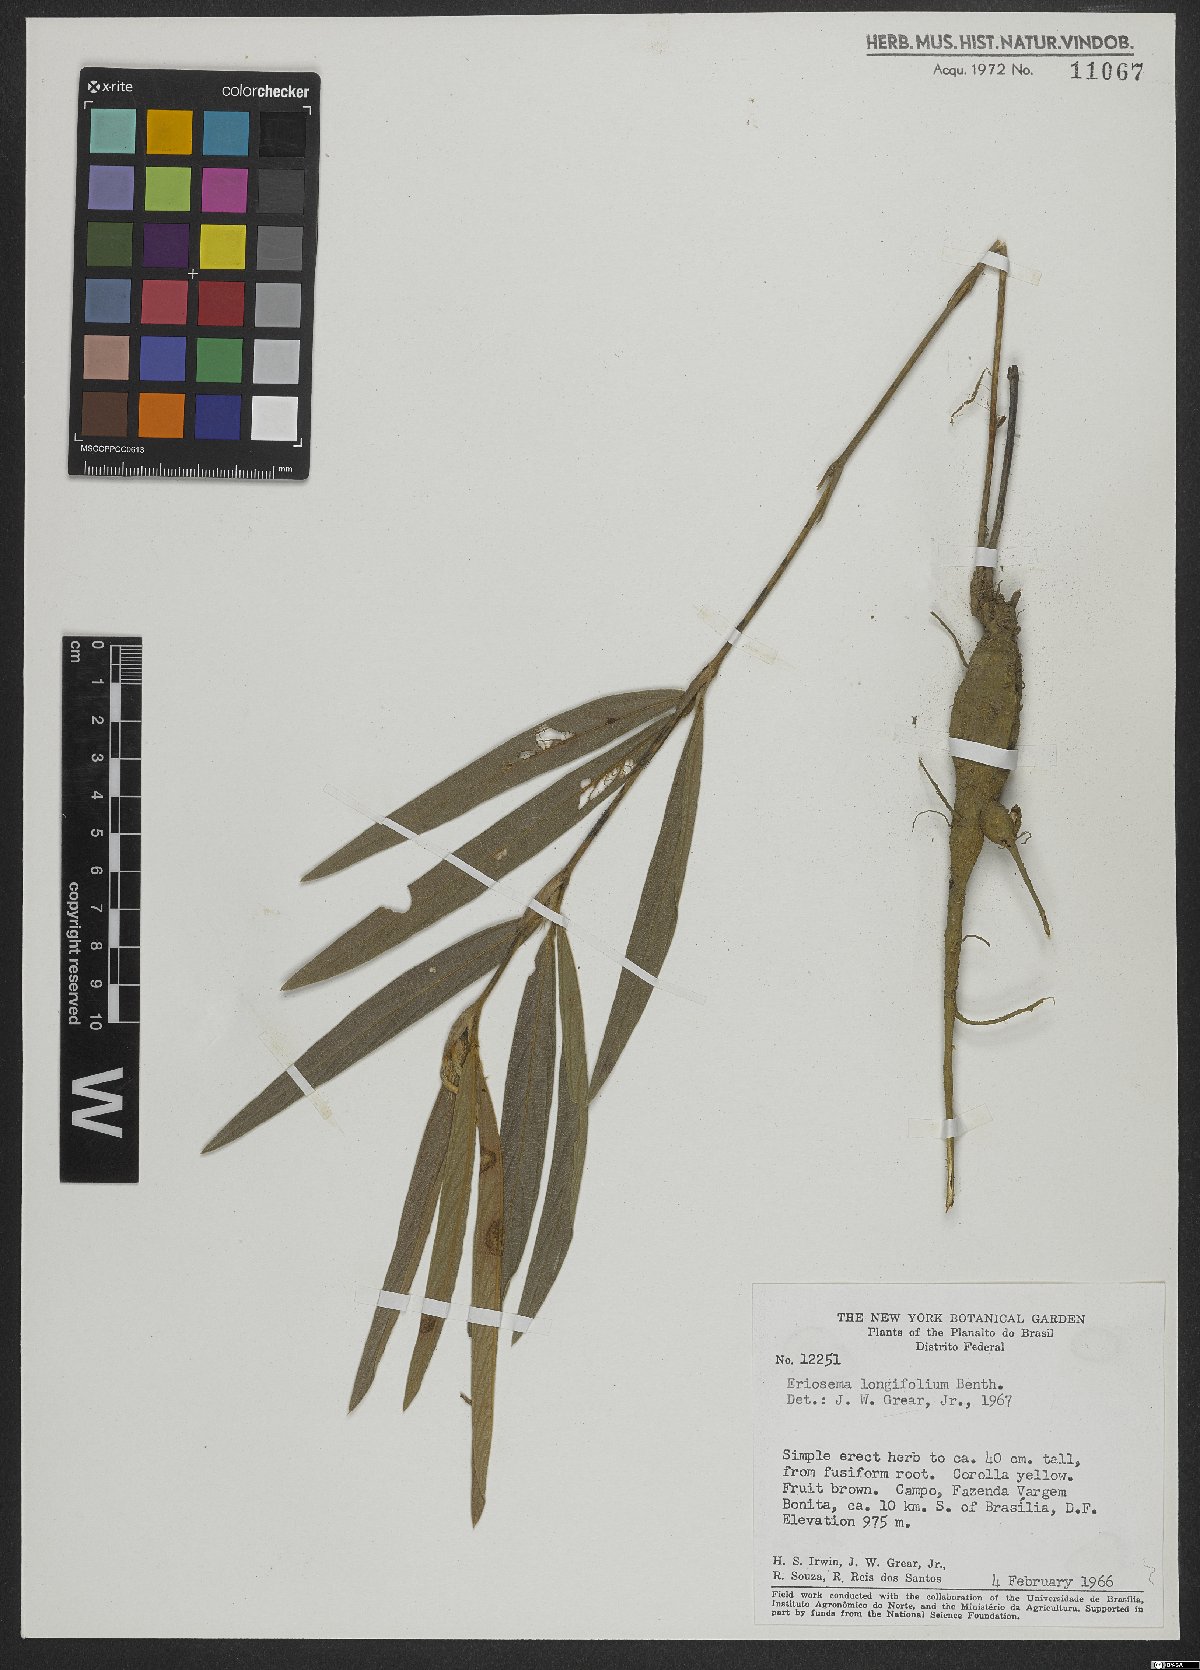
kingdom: Plantae
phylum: Tracheophyta
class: Magnoliopsida
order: Fabales
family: Fabaceae
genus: Eriosema
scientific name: Eriosema longifolium
